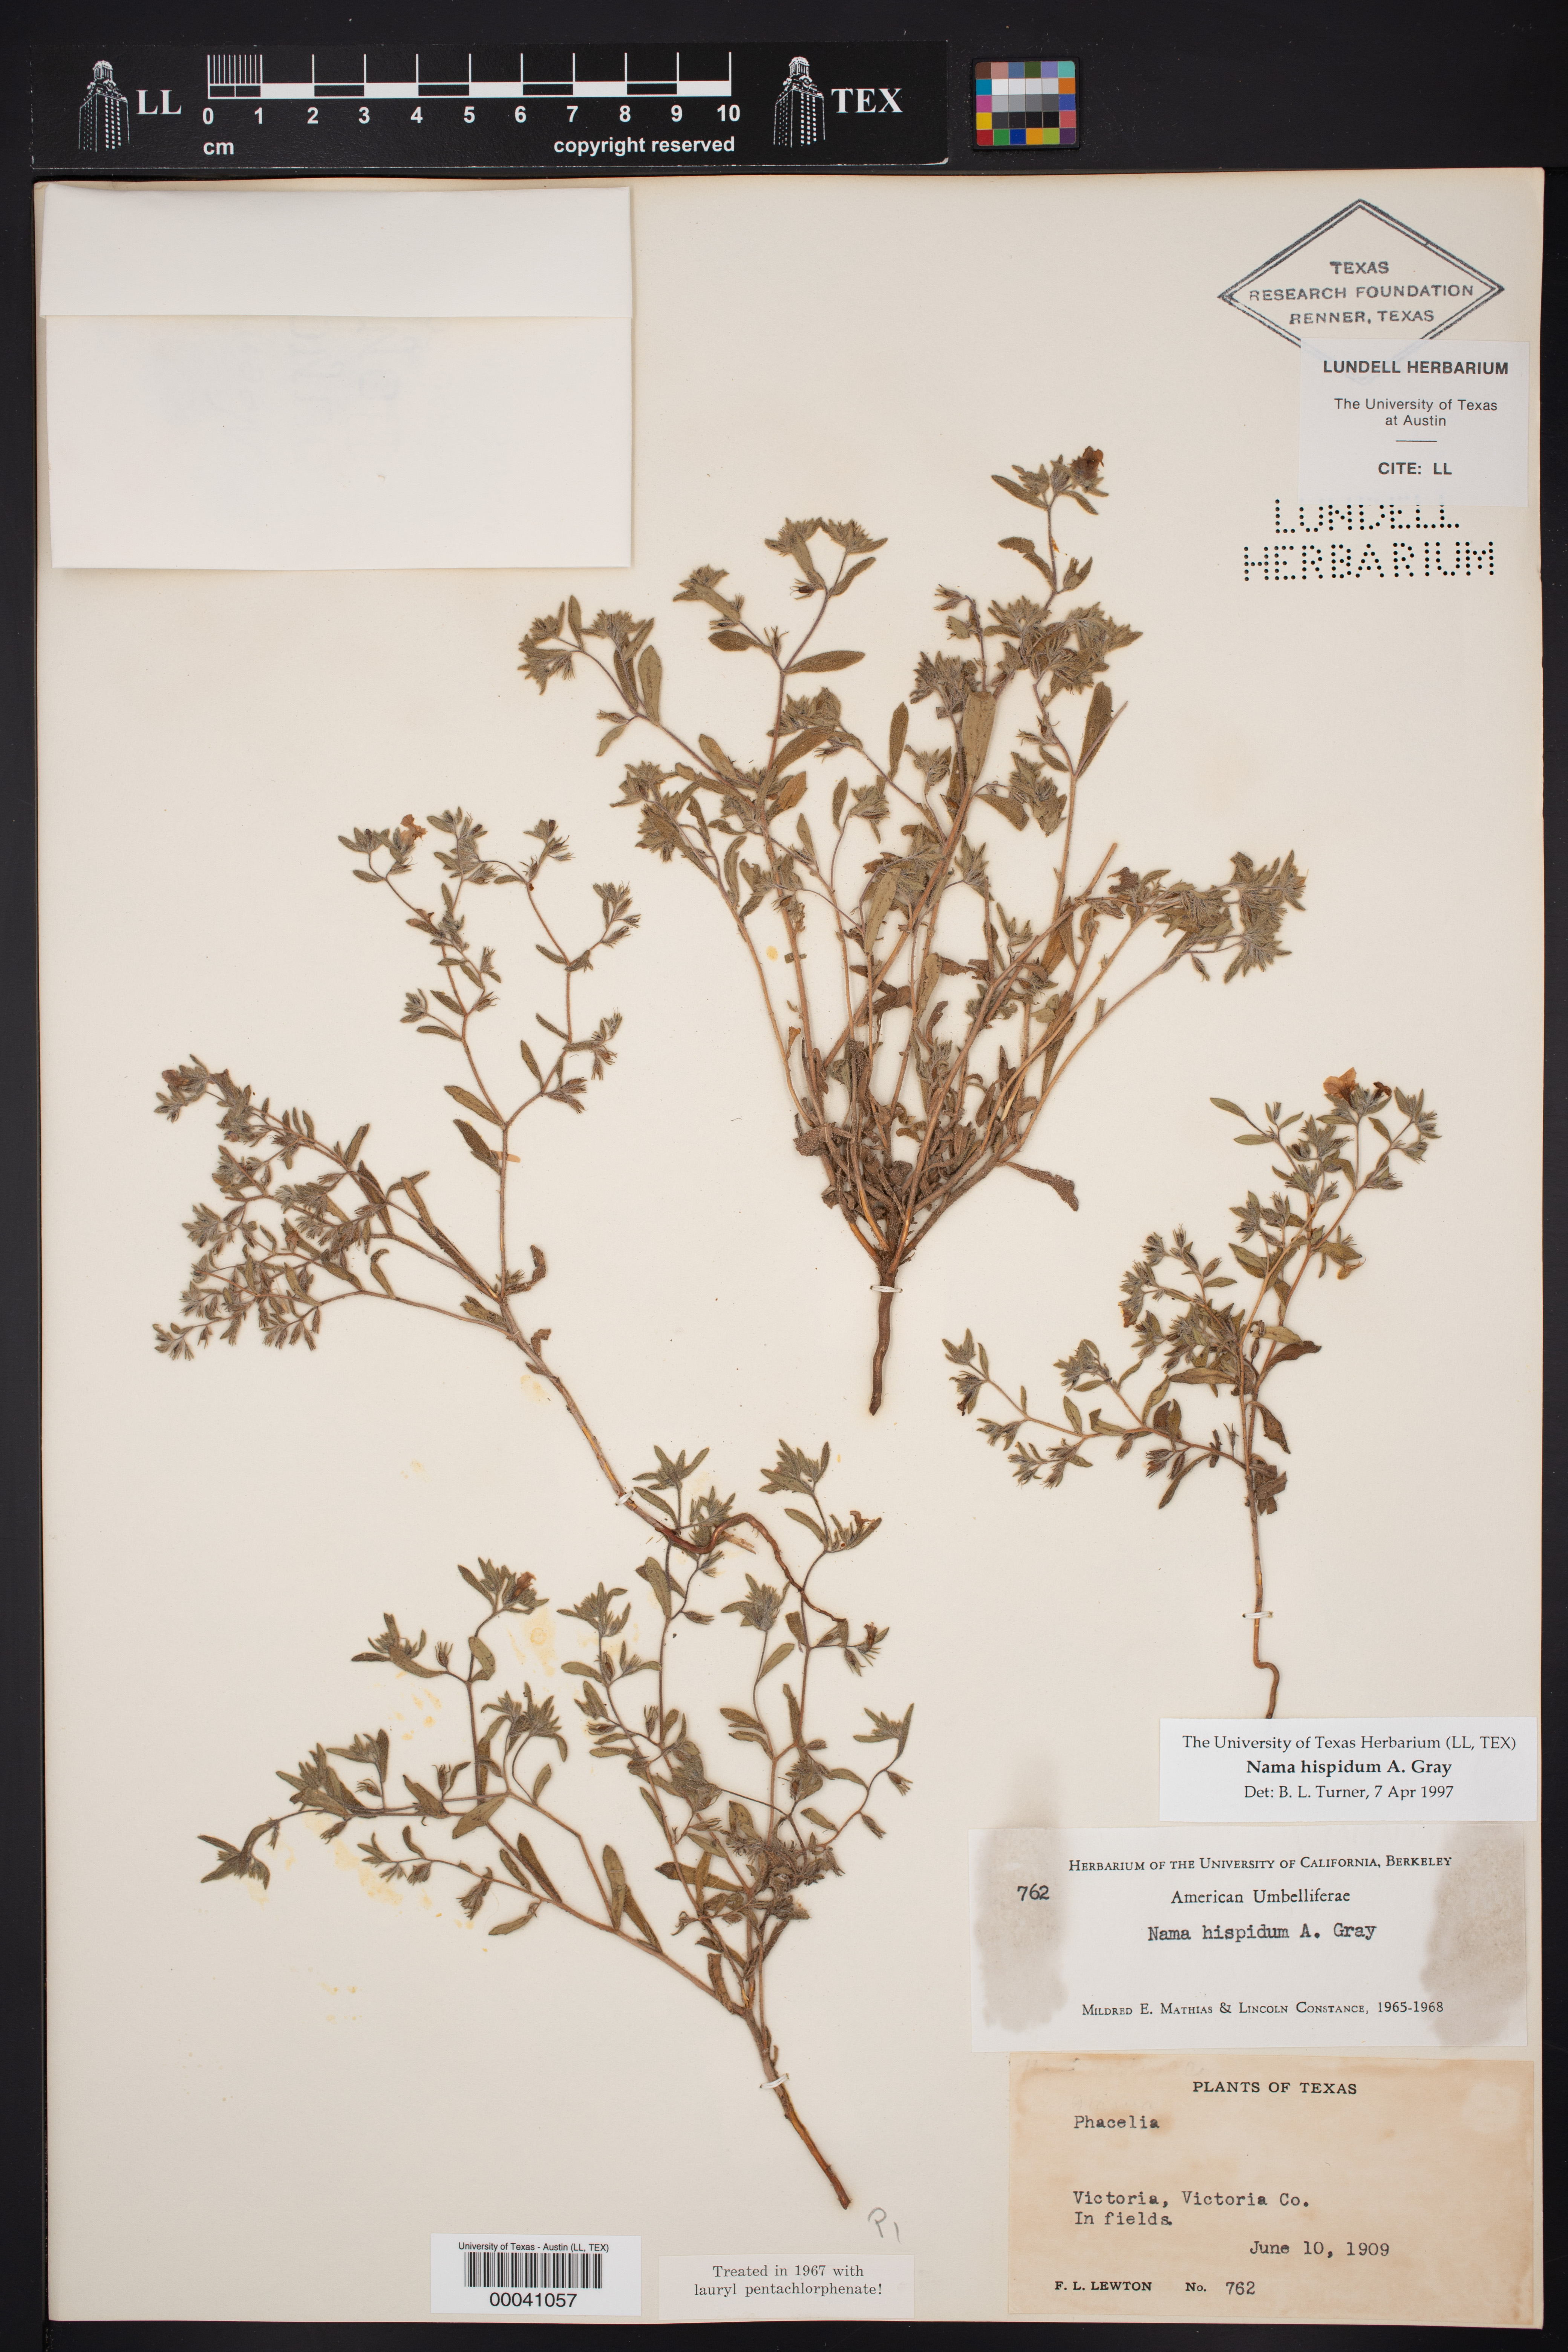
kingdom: Plantae
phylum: Tracheophyta
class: Magnoliopsida
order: Boraginales
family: Namaceae
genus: Nama
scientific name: Nama hispida
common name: Bristly nama
